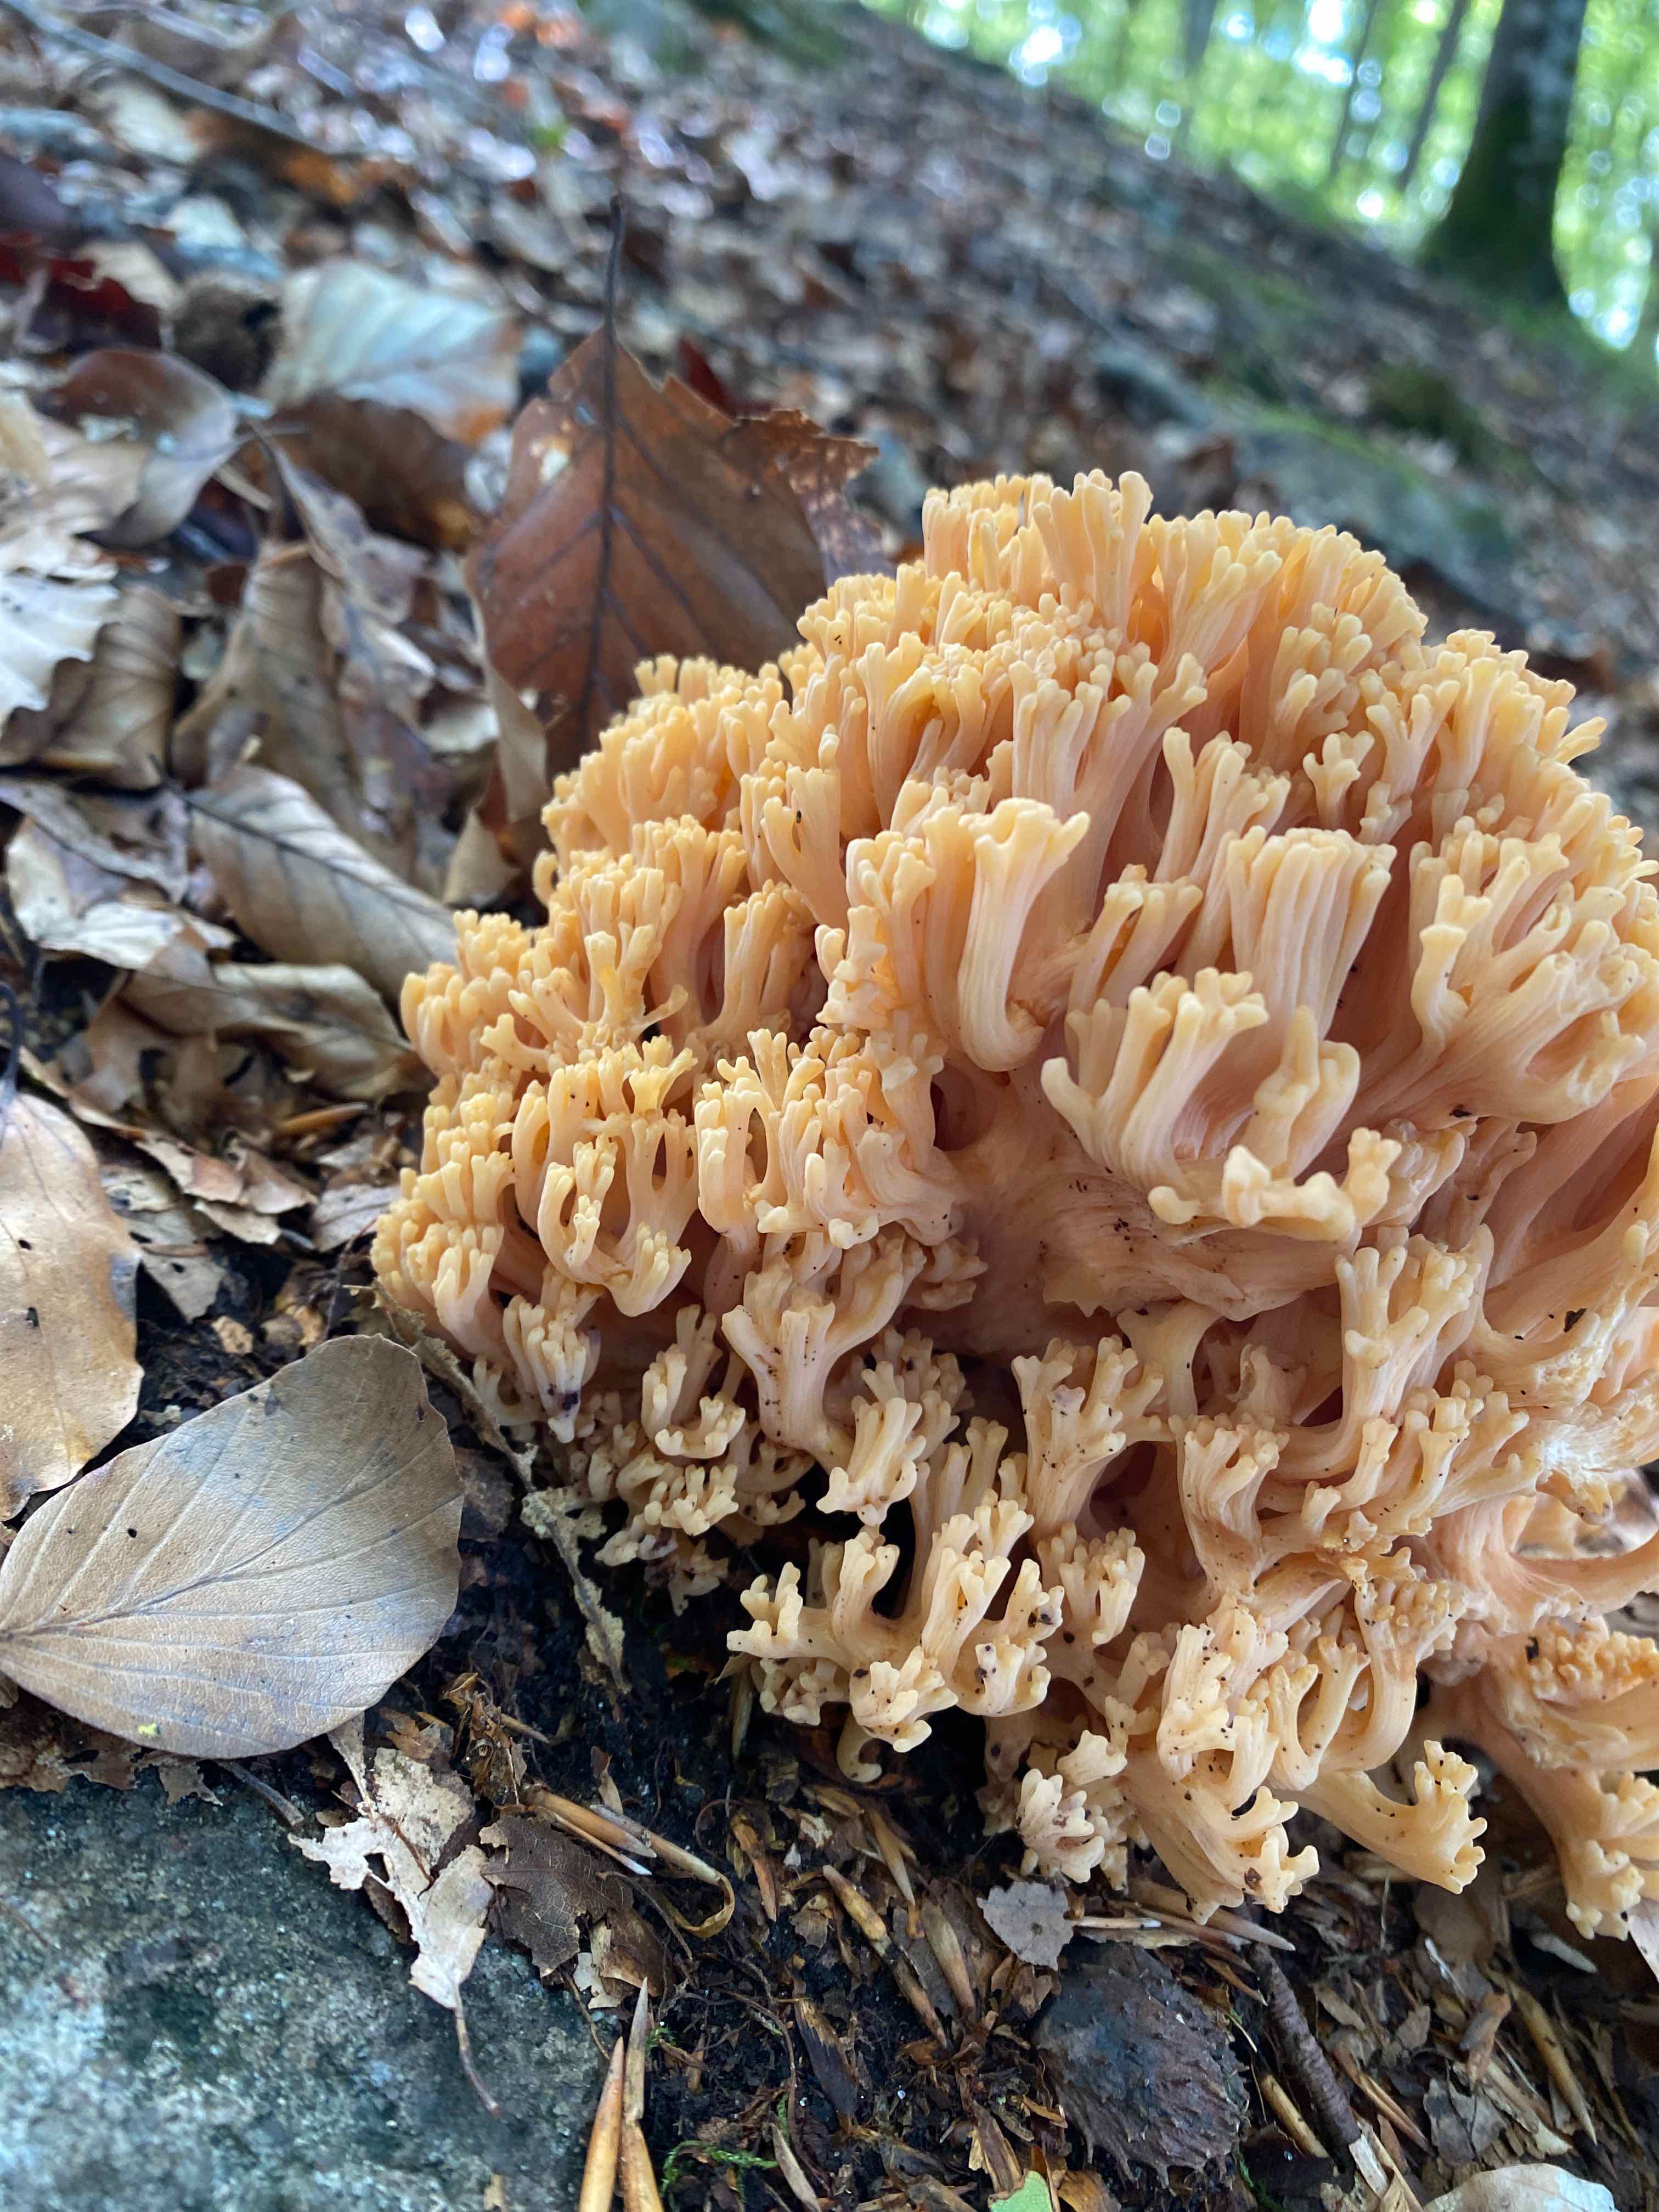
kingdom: Fungi
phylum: Basidiomycota
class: Agaricomycetes
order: Gomphales
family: Gomphaceae
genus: Ramaria
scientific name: Ramaria
